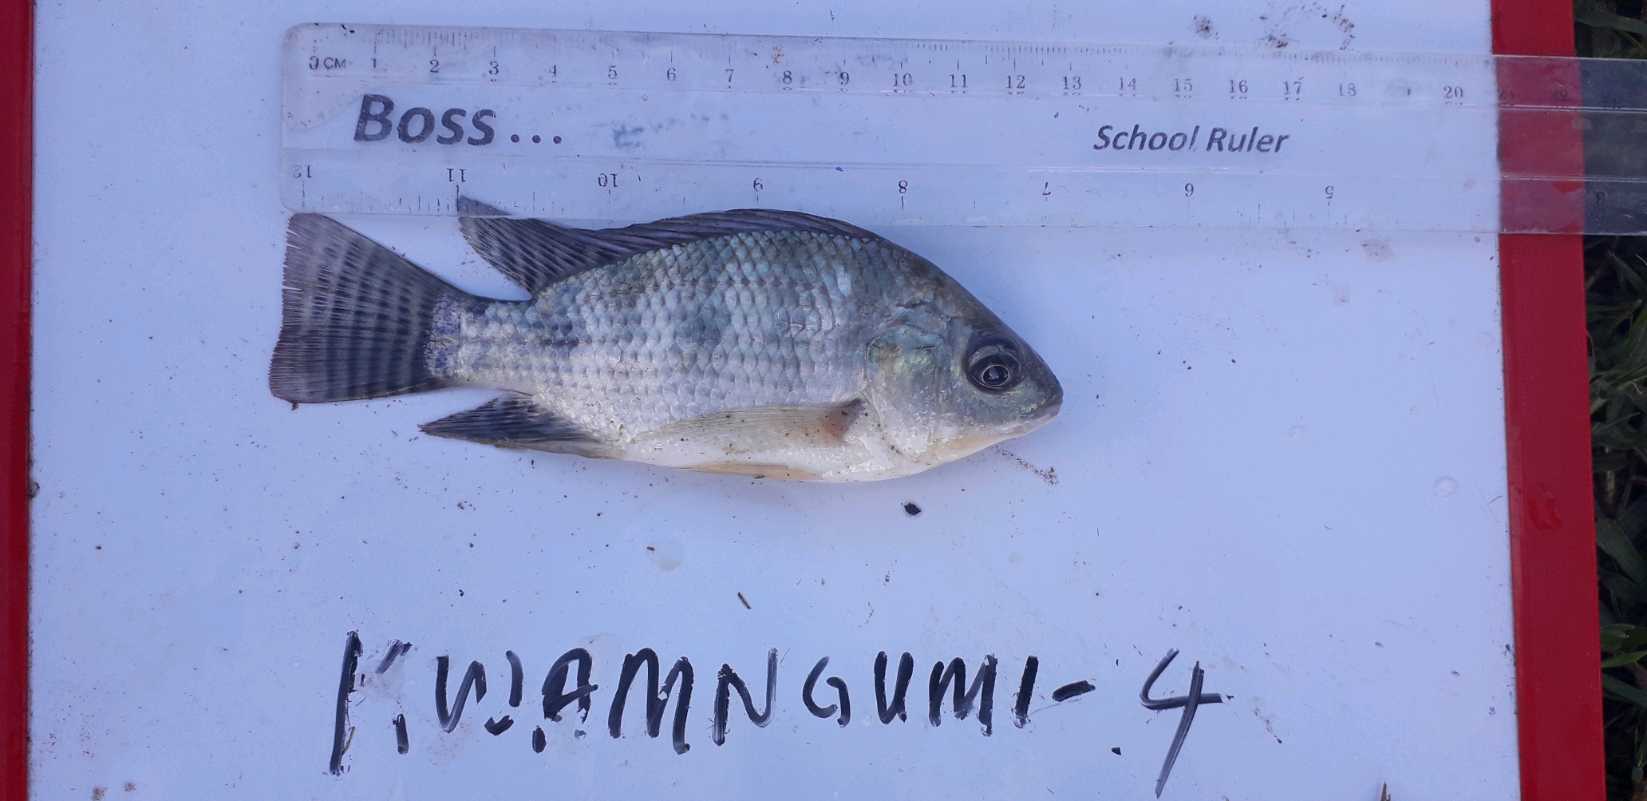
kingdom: Animalia
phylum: Chordata
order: Perciformes
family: Cichlidae
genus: Oreochromis
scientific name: Oreochromis niloticus
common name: Nile tilapia
